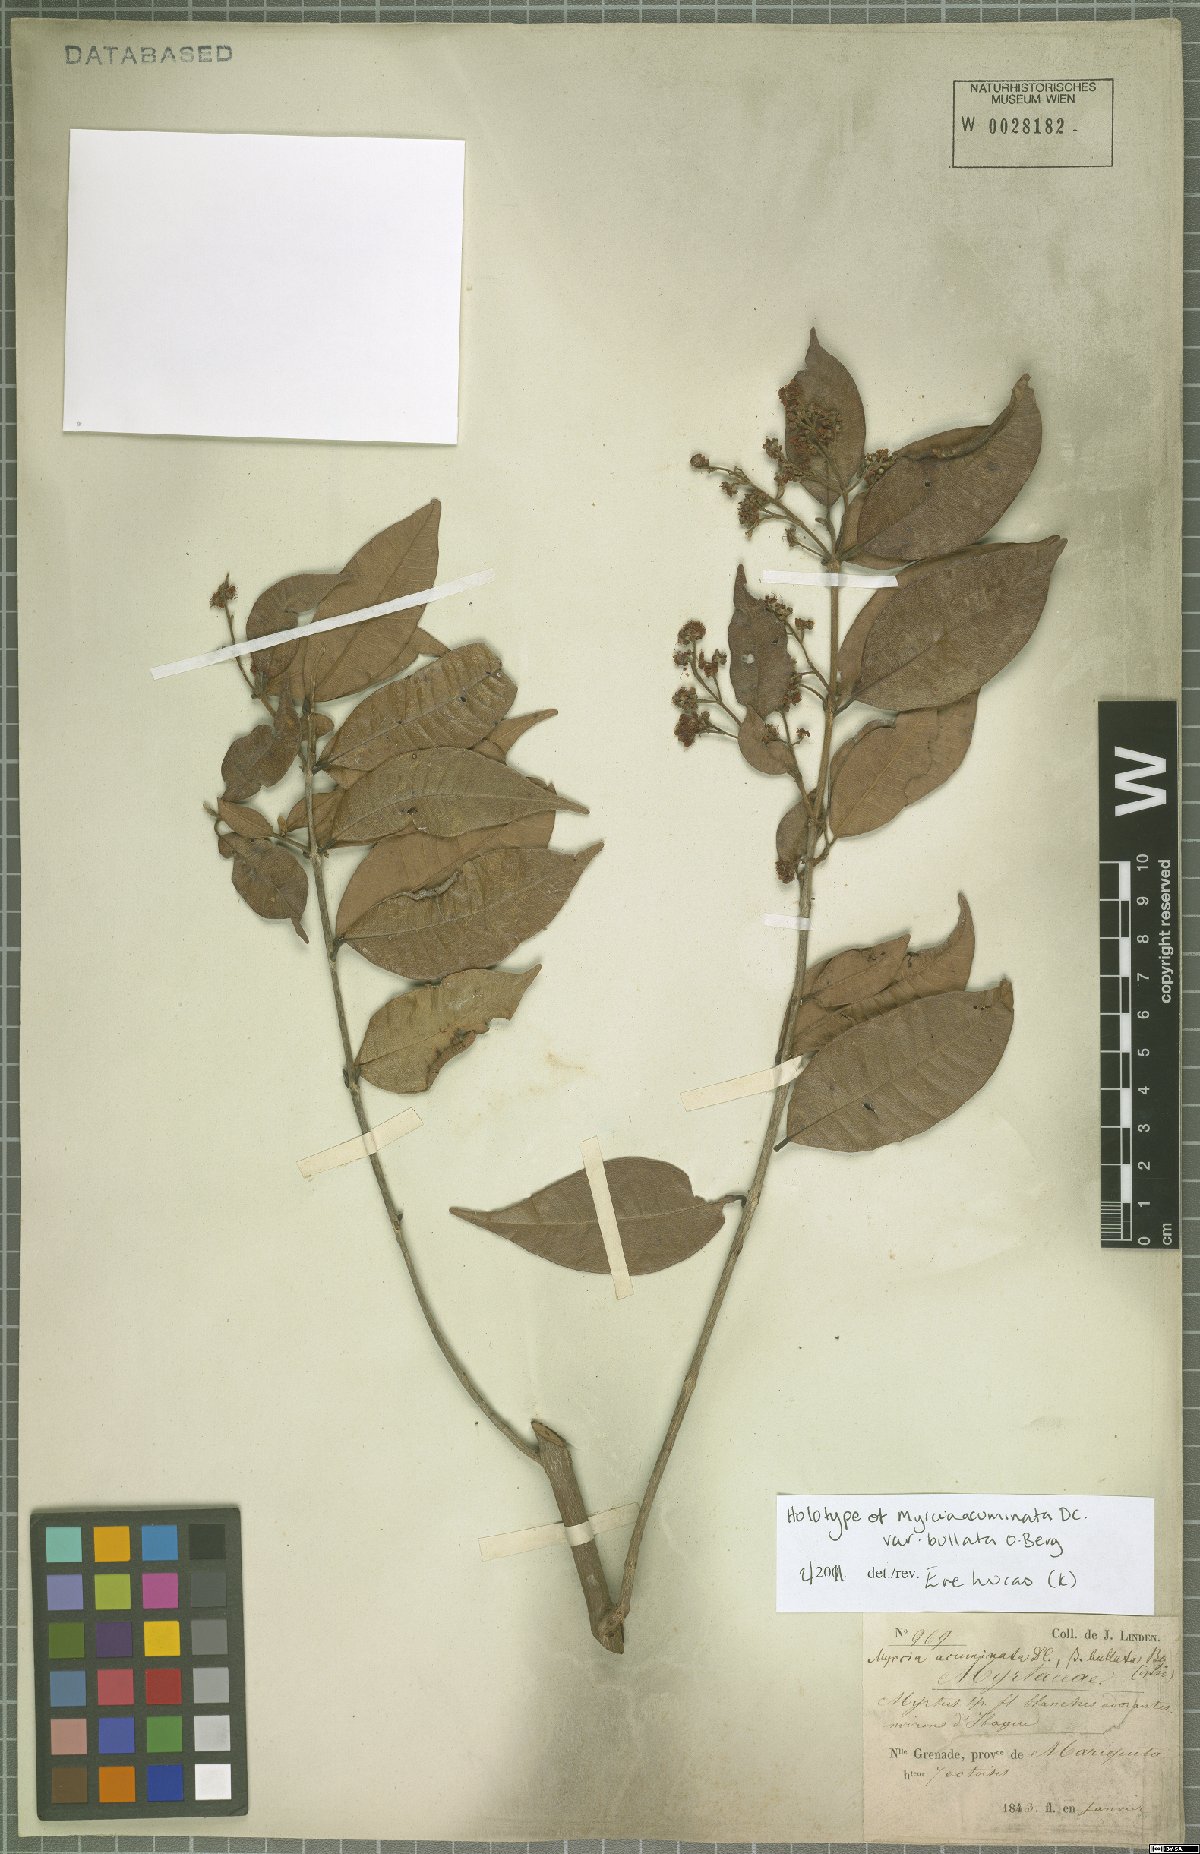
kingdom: Plantae
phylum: Tracheophyta
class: Magnoliopsida
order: Myrtales
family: Myrtaceae
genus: Myrcia
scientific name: Myrcia splendens
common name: Surinam cherry
